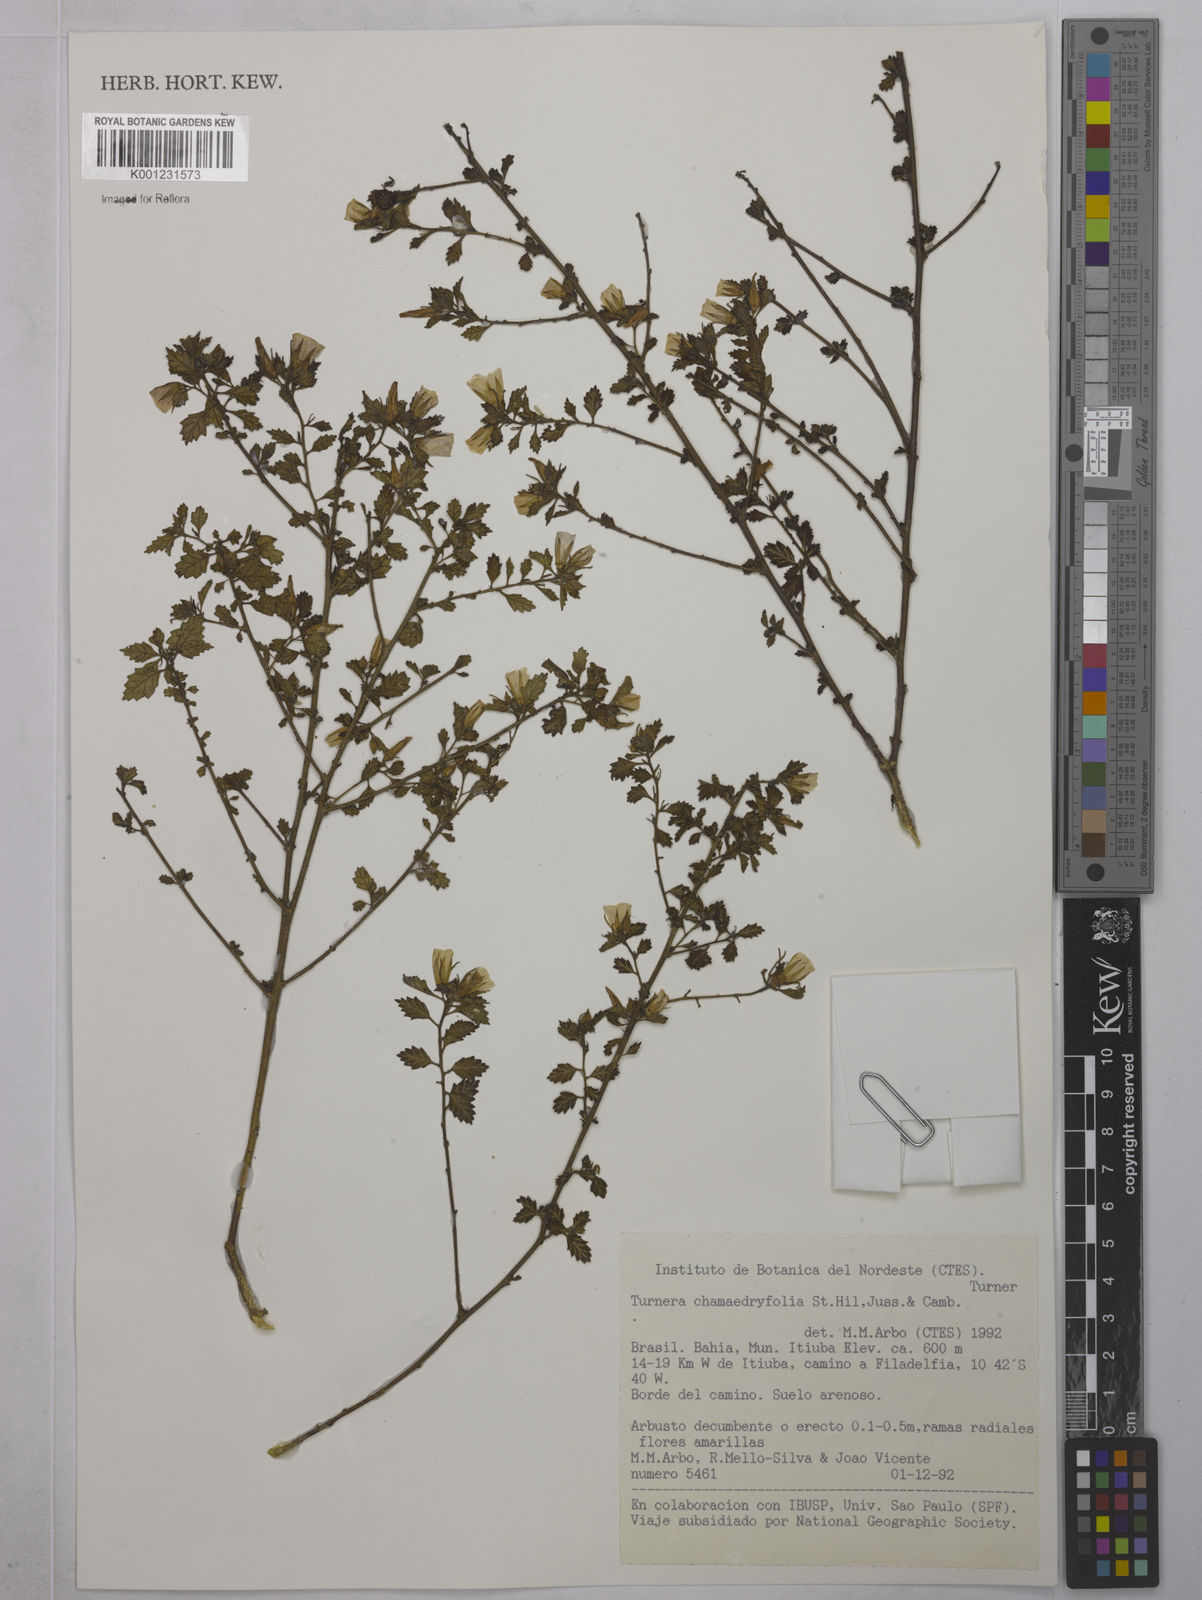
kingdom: Plantae
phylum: Tracheophyta
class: Magnoliopsida
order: Malpighiales
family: Turneraceae
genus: Turnera
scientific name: Turnera chamaedrifolia
